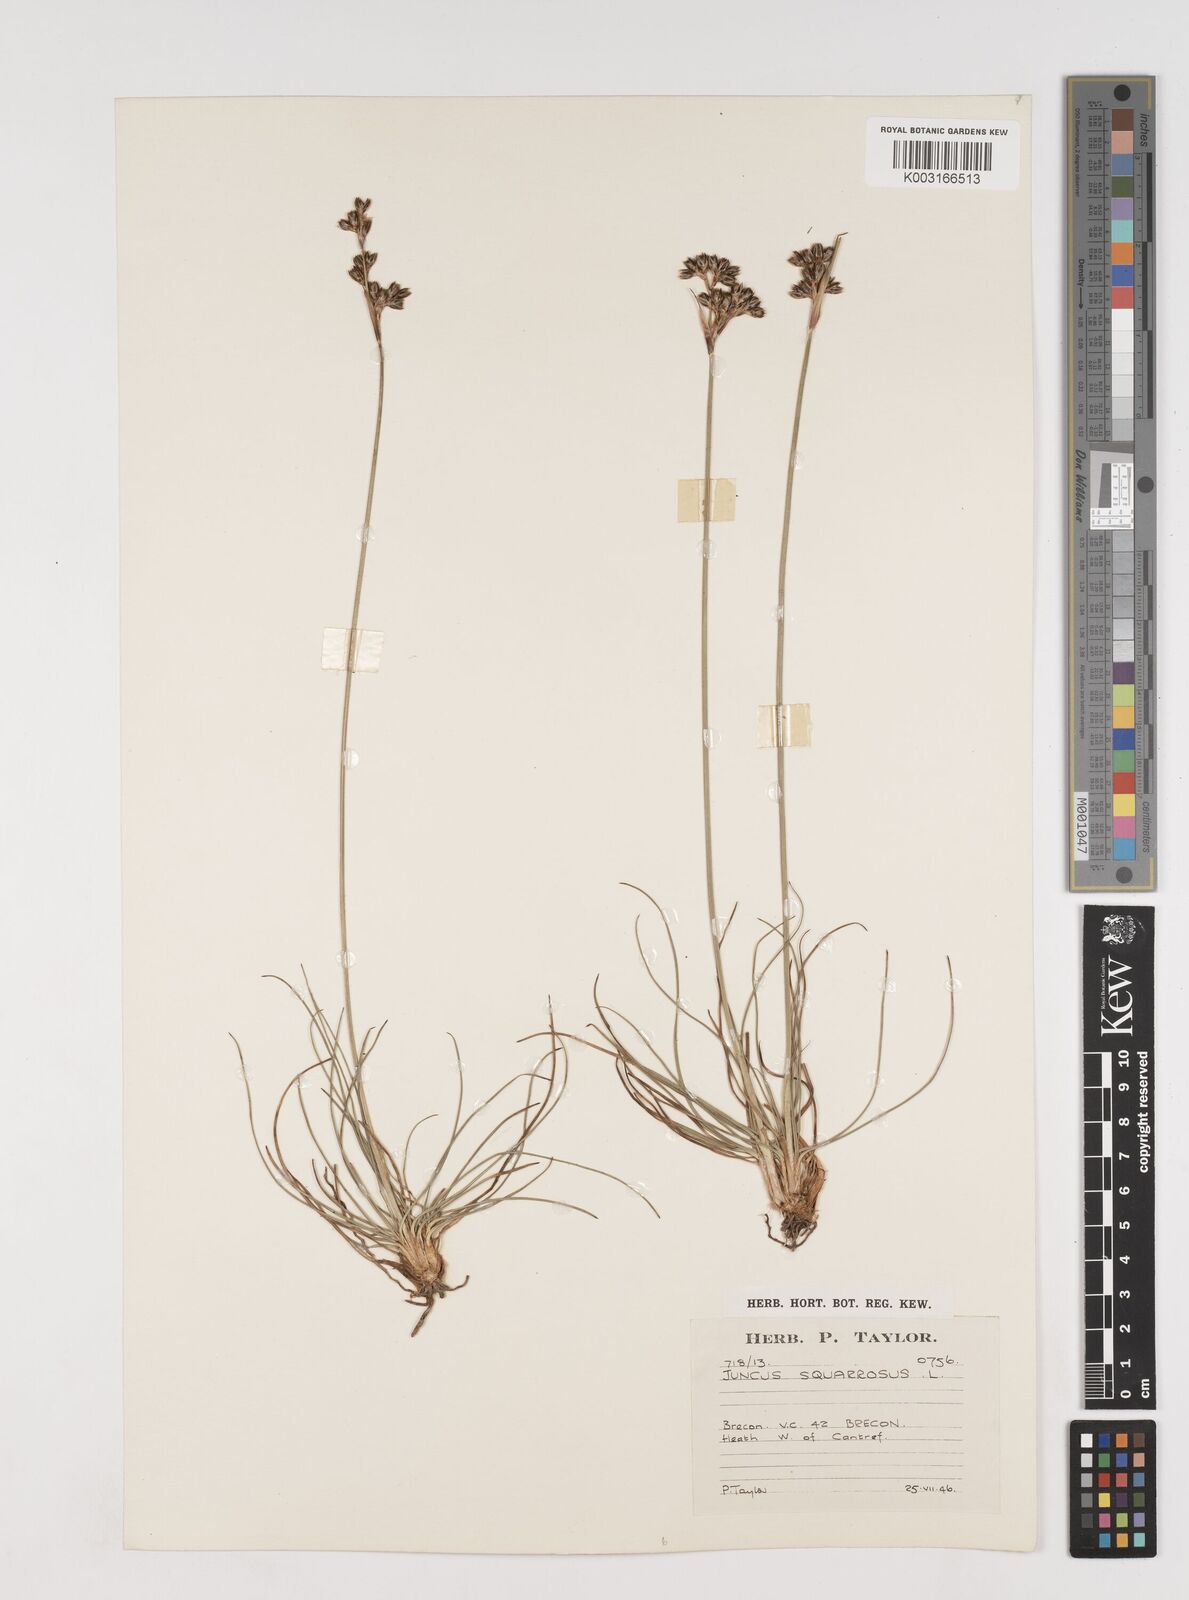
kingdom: Plantae
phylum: Tracheophyta
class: Liliopsida
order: Poales
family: Juncaceae
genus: Juncus
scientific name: Juncus squarrosus
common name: Heath rush
